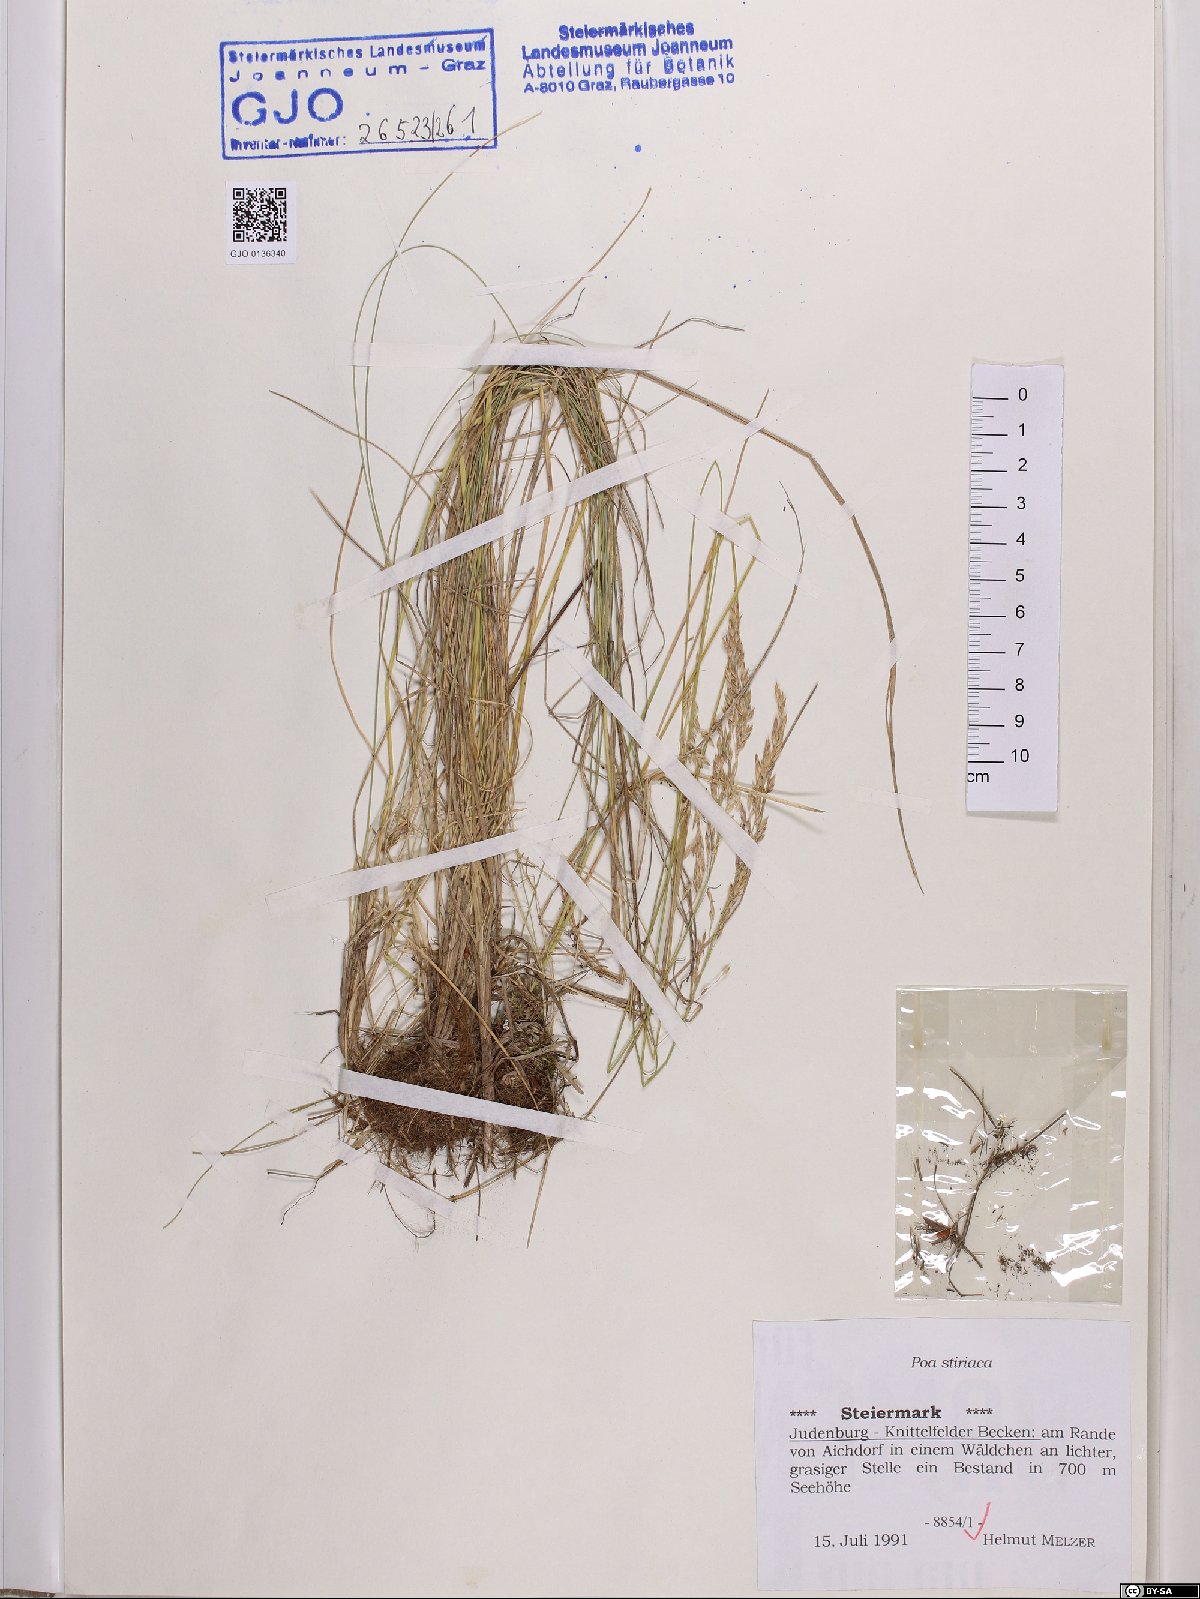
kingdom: Plantae
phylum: Tracheophyta
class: Liliopsida
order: Poales
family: Poaceae
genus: Poa
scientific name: Poa stiriaca
